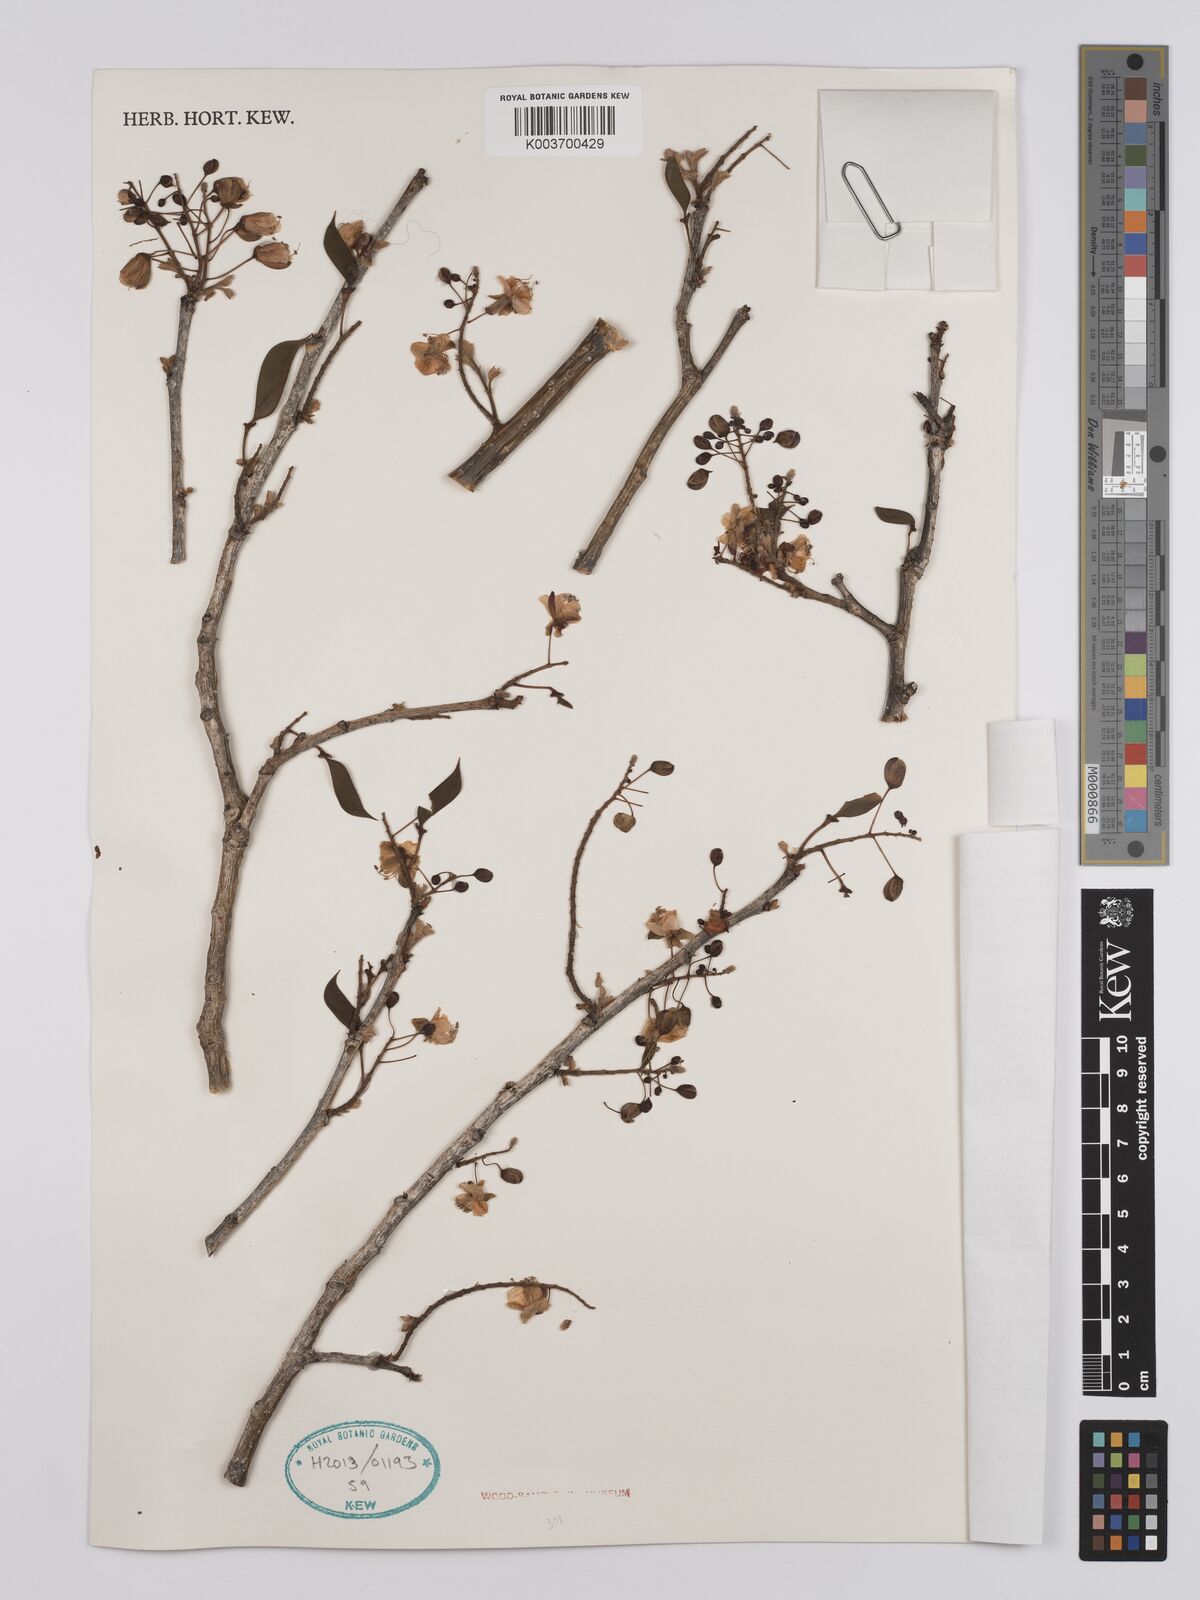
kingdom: Plantae
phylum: Tracheophyta
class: Magnoliopsida
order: Fabales
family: Fabaceae
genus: Denisophytum
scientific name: Denisophytum madagascariense
